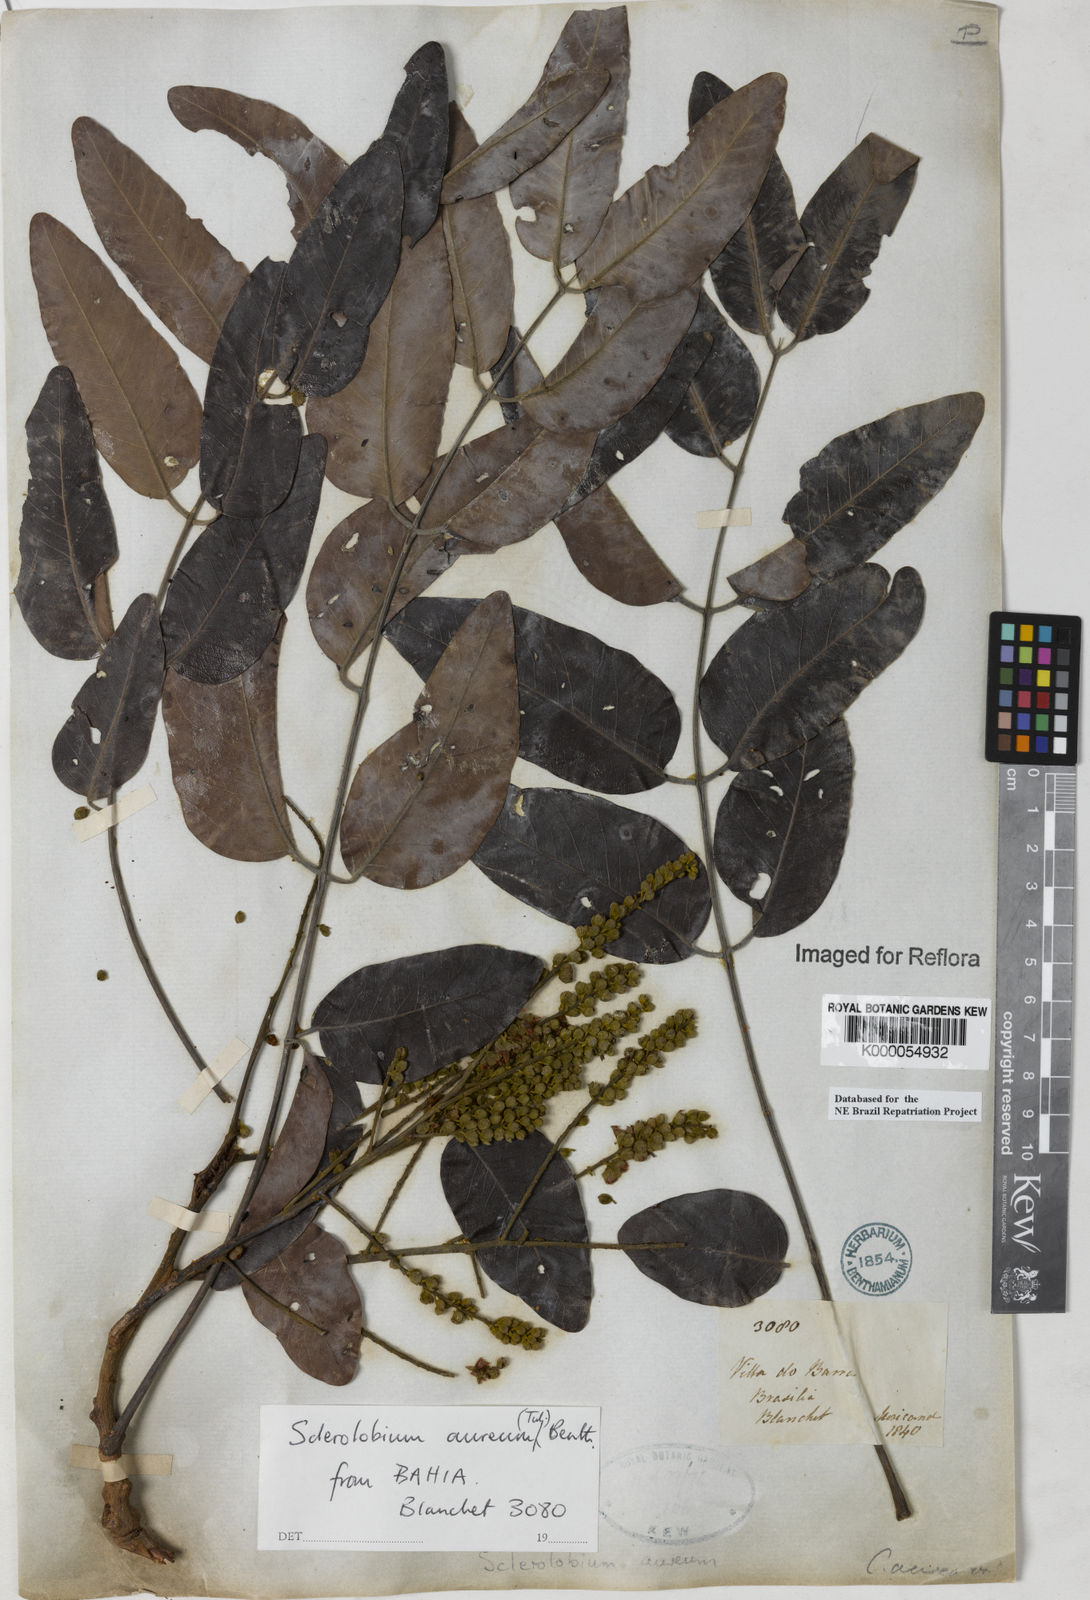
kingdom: Plantae
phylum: Tracheophyta
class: Magnoliopsida
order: Fabales
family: Fabaceae
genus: Tachigali
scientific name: Tachigali
